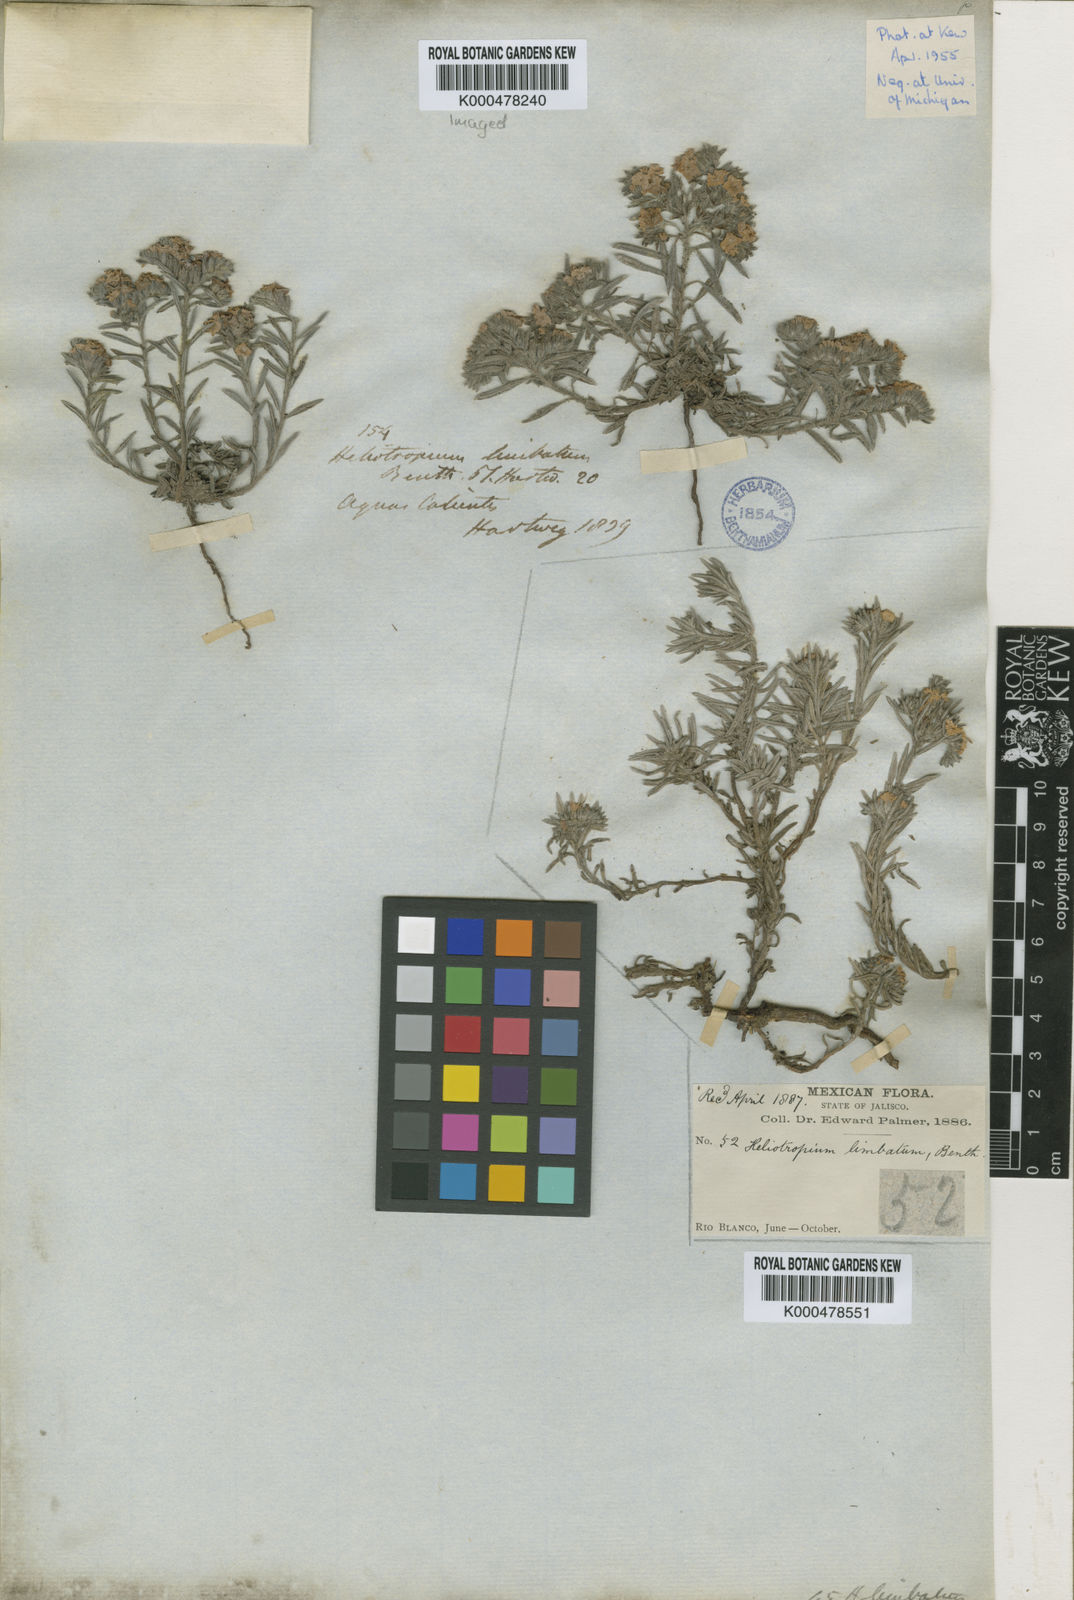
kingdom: Plantae
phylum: Tracheophyta
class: Magnoliopsida
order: Boraginales
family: Heliotropiaceae
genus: Euploca
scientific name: Euploca limbata
